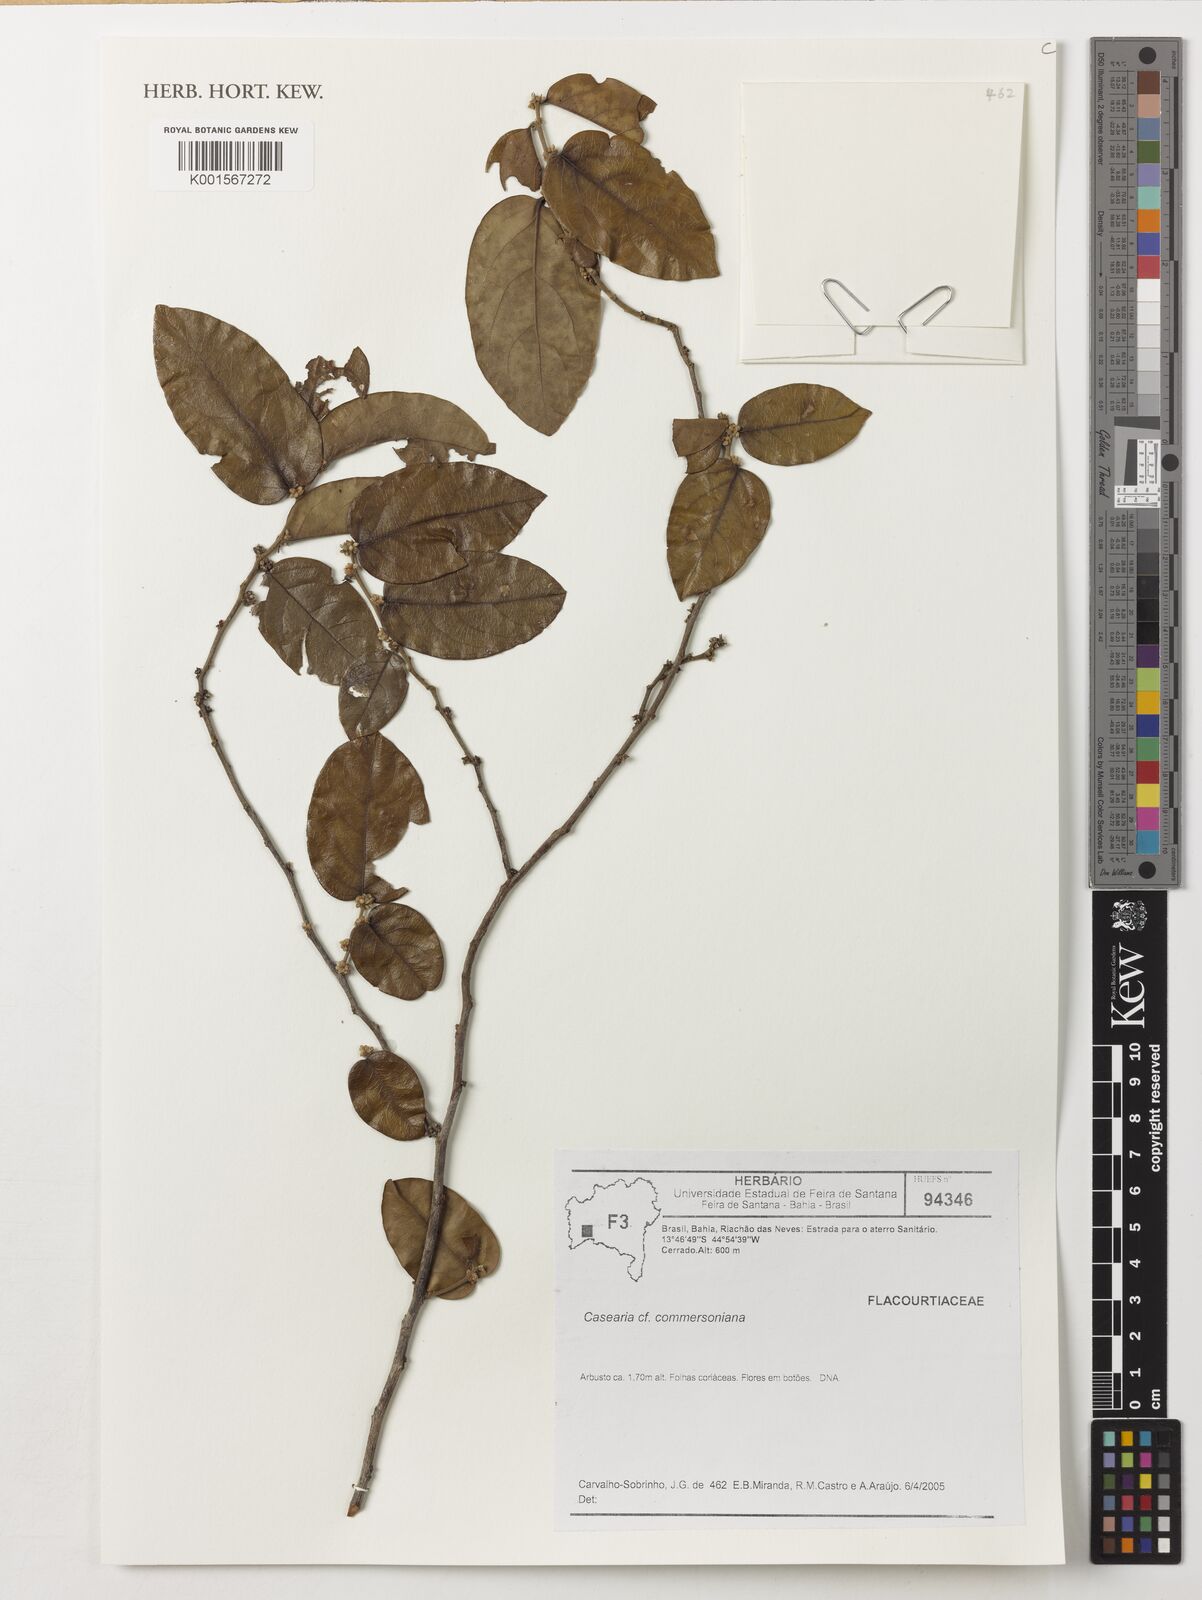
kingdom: Plantae
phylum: Tracheophyta
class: Magnoliopsida
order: Malpighiales
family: Salicaceae
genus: Piparea
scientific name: Piparea dentata
